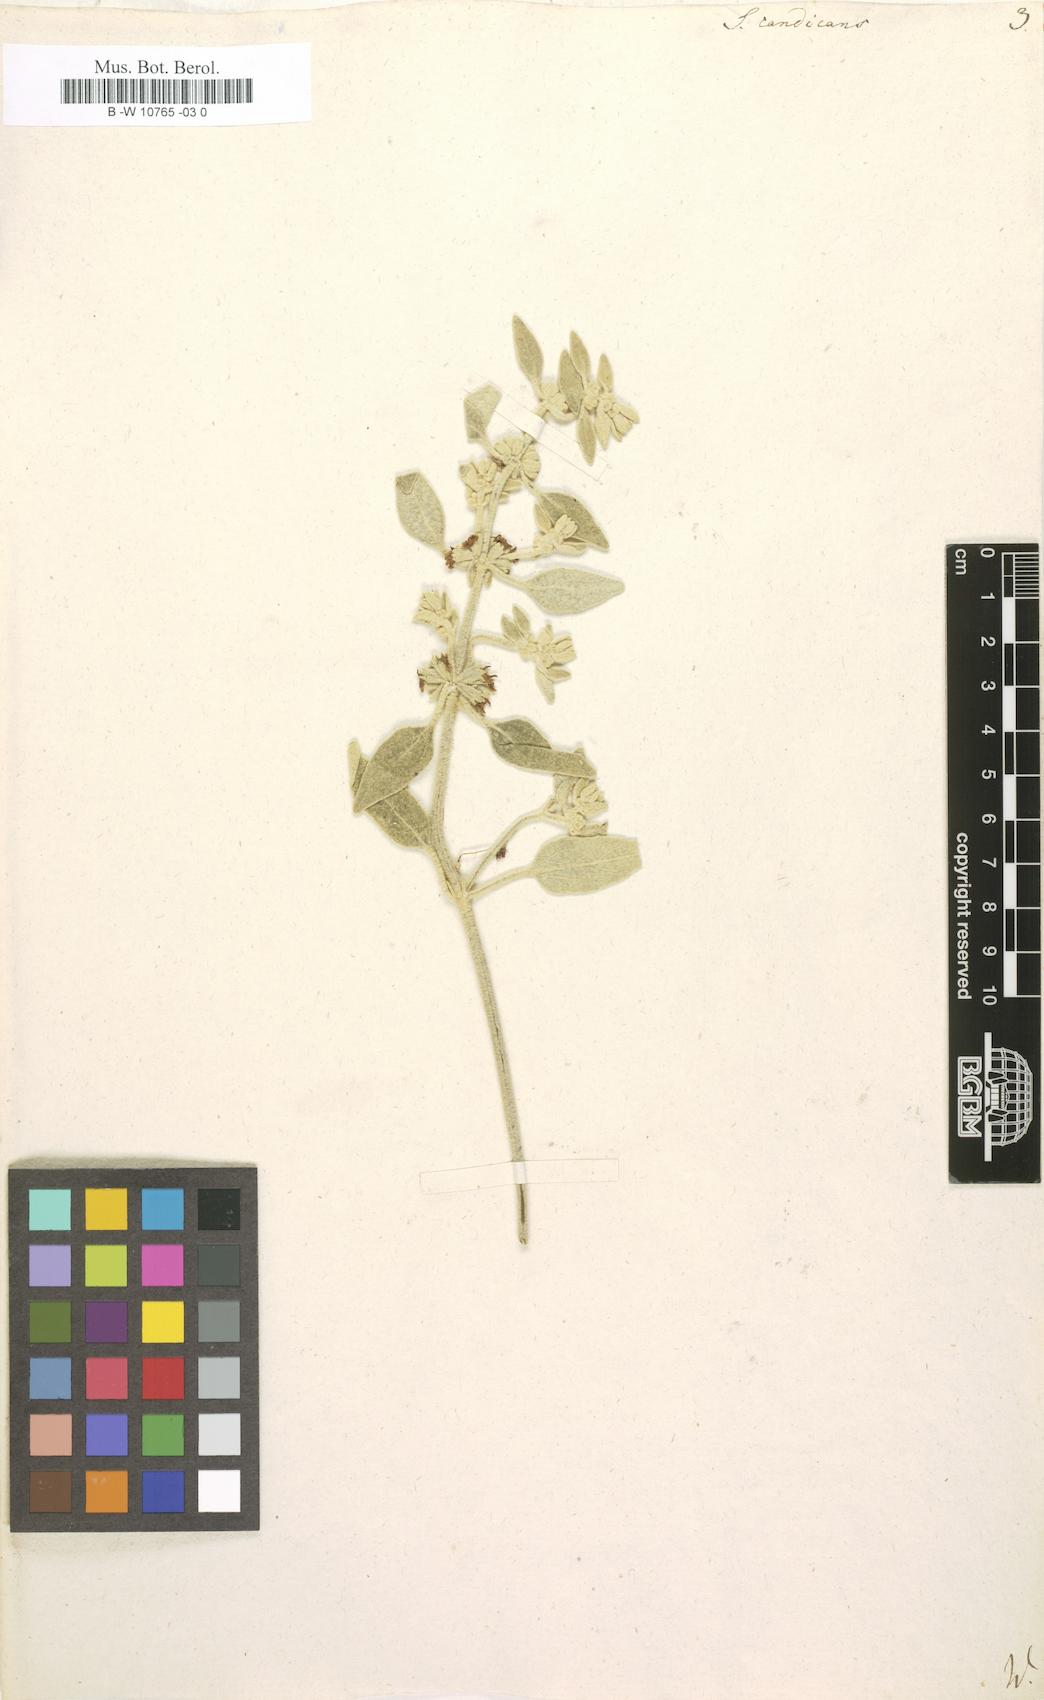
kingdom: Plantae
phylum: Tracheophyta
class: Magnoliopsida
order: Lamiales
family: Lamiaceae
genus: Sideritis
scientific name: Sideritis candicans
